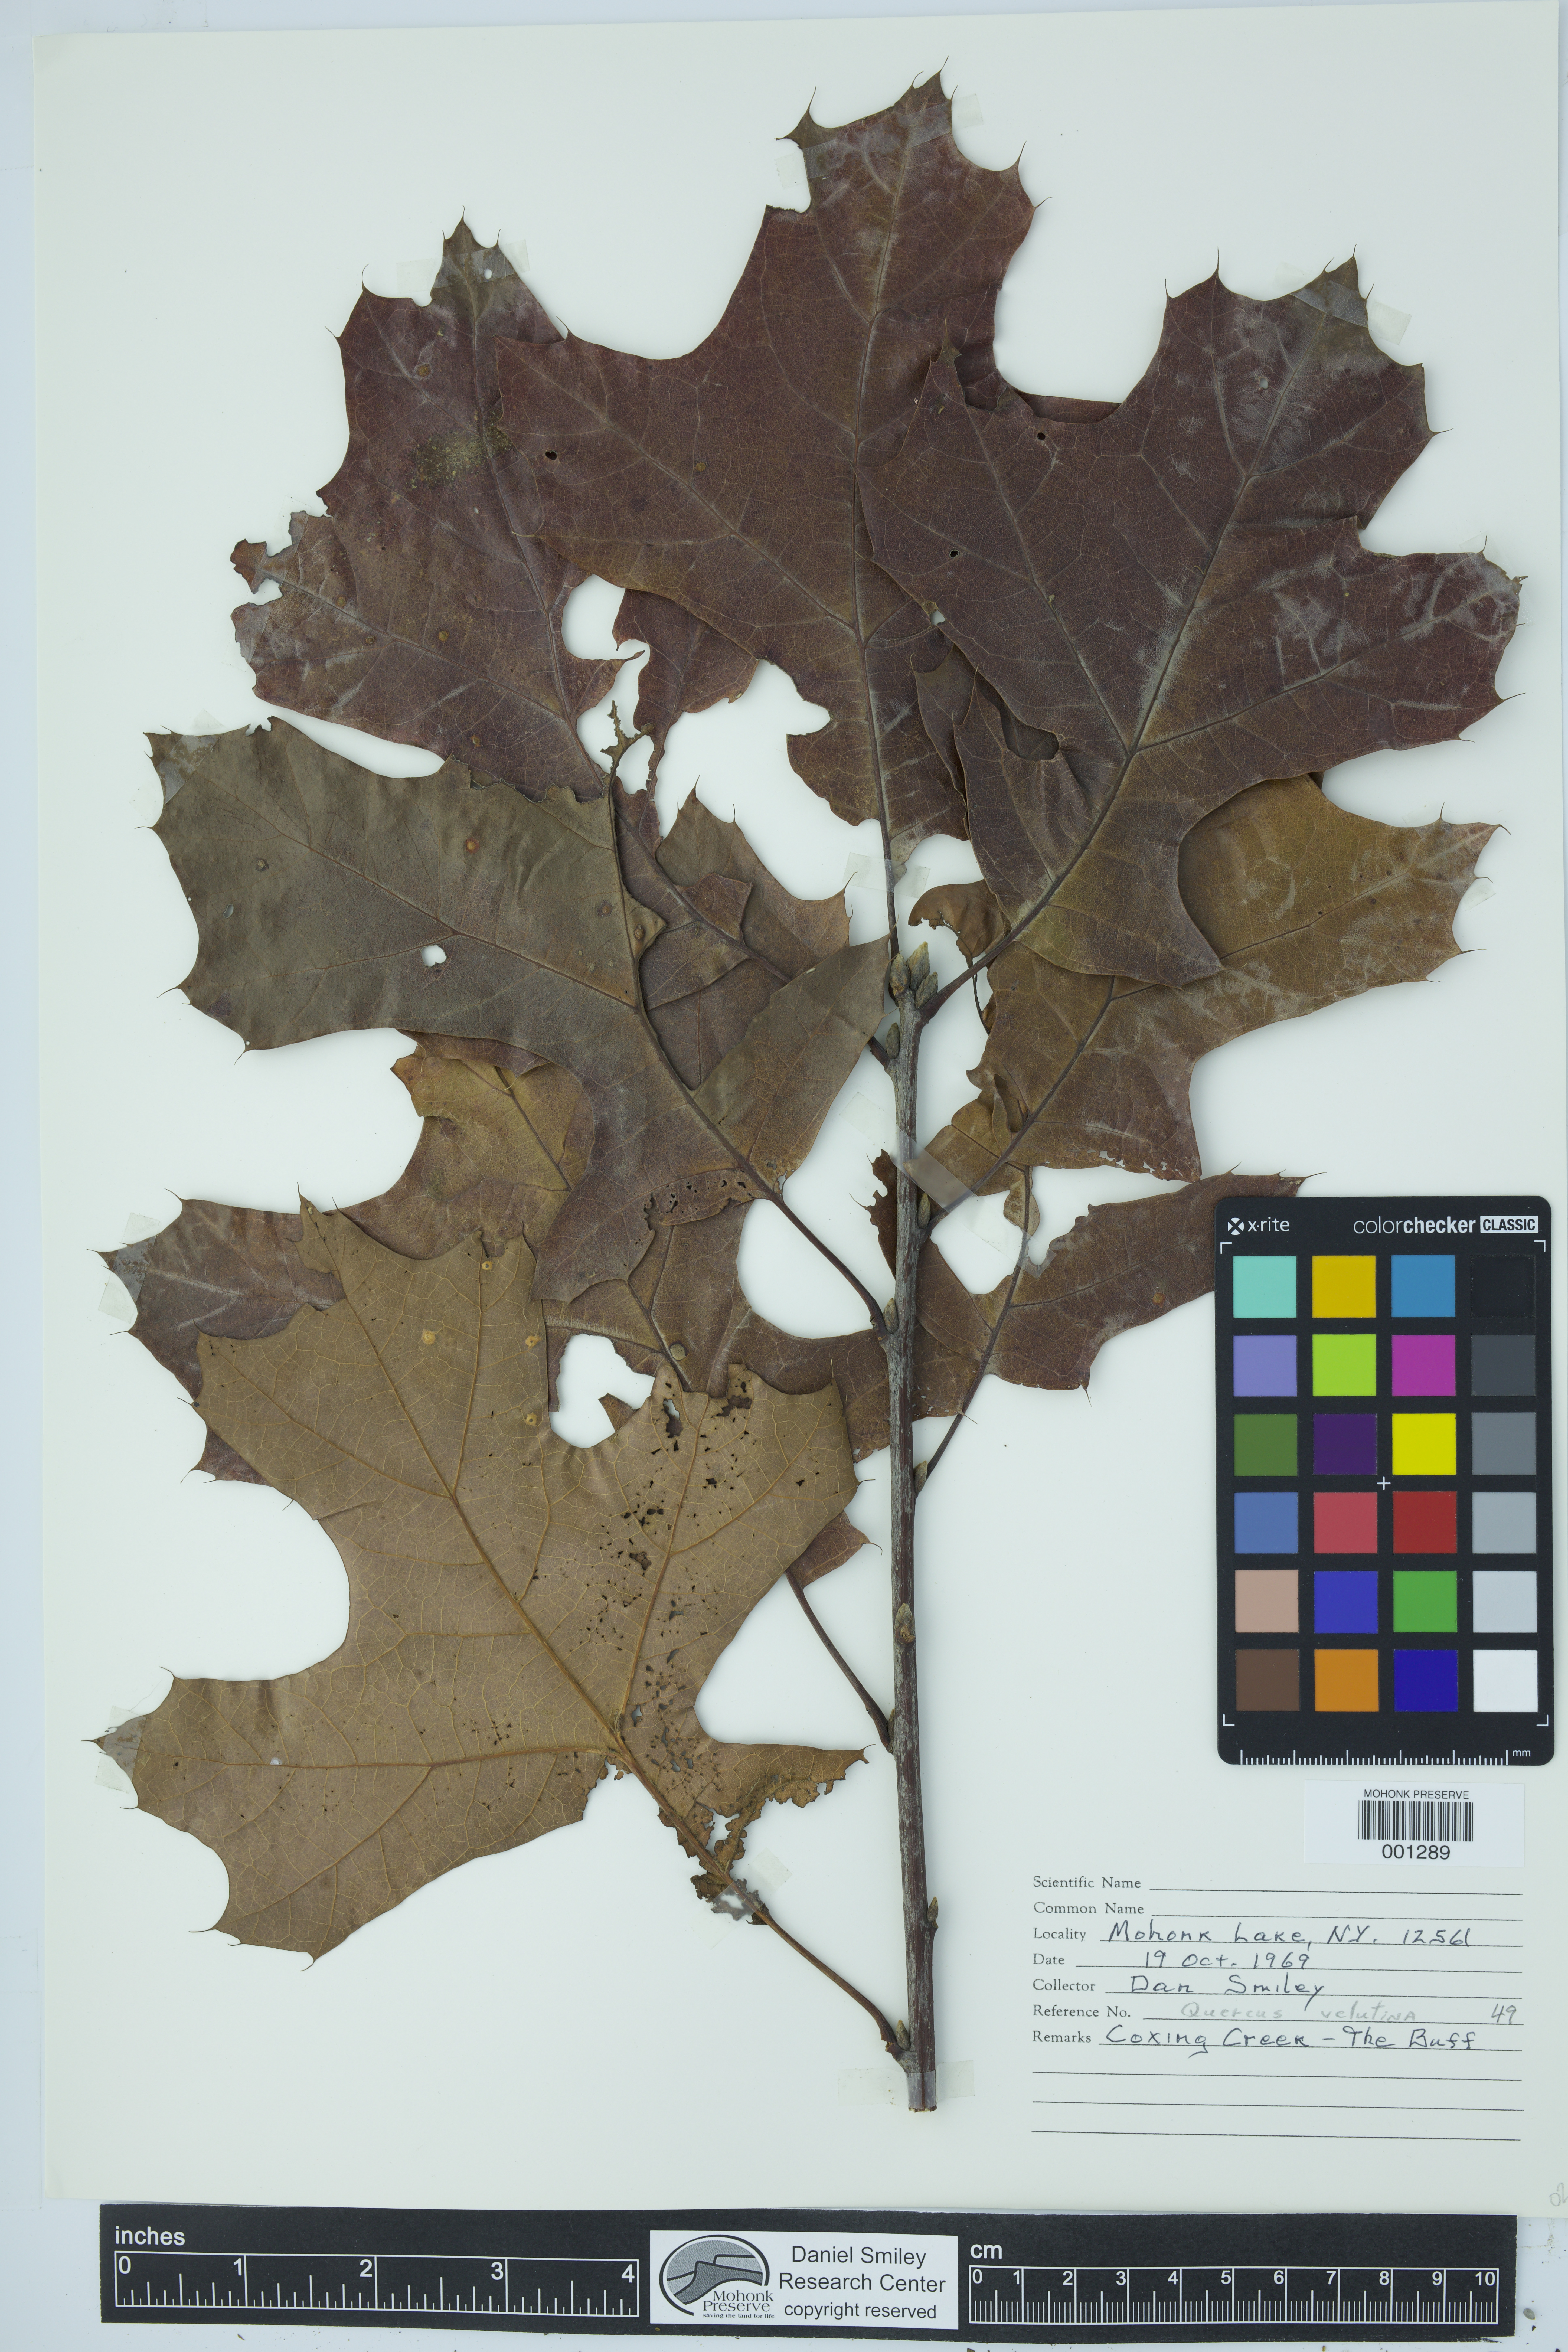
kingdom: Plantae
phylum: Tracheophyta
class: Magnoliopsida
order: Fagales
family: Fagaceae
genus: Quercus
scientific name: Quercus velutina
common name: Black oak
